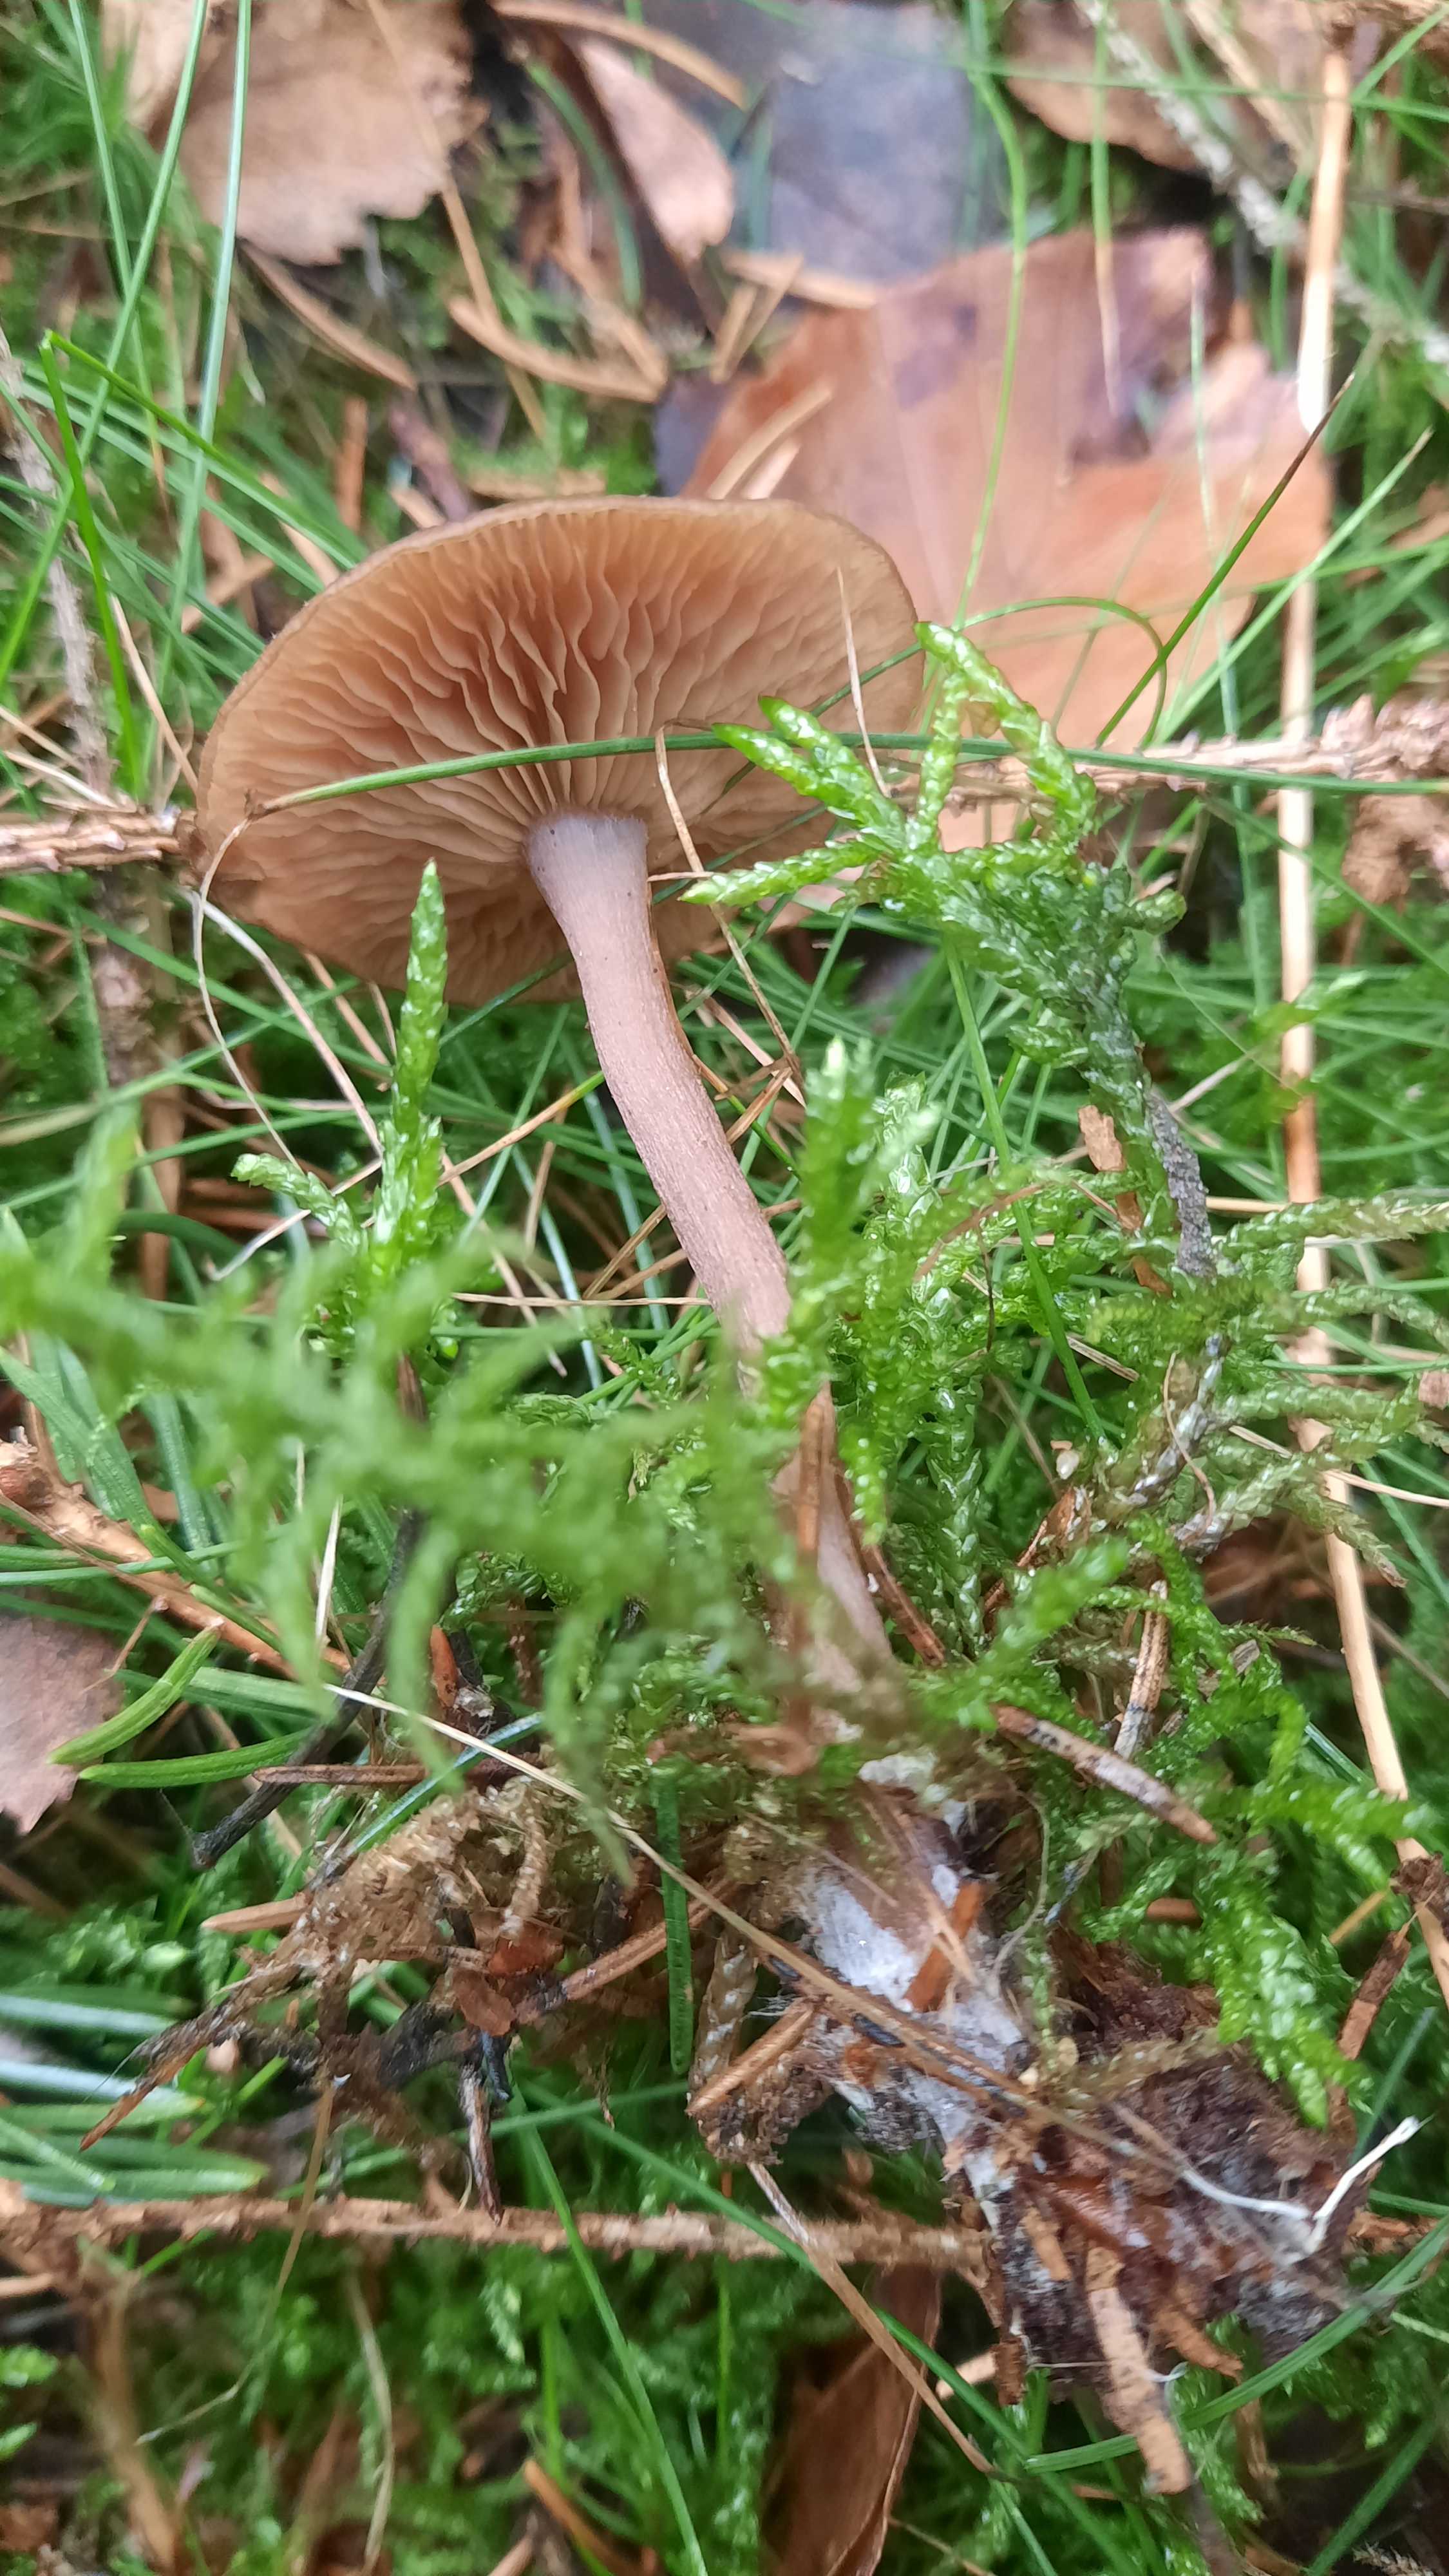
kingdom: Fungi
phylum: Basidiomycota
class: Agaricomycetes
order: Agaricales
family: Pseudoclitocybaceae
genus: Pseudoclitocybe
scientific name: Pseudoclitocybe cyathiformis
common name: almindelig bægertragthat
